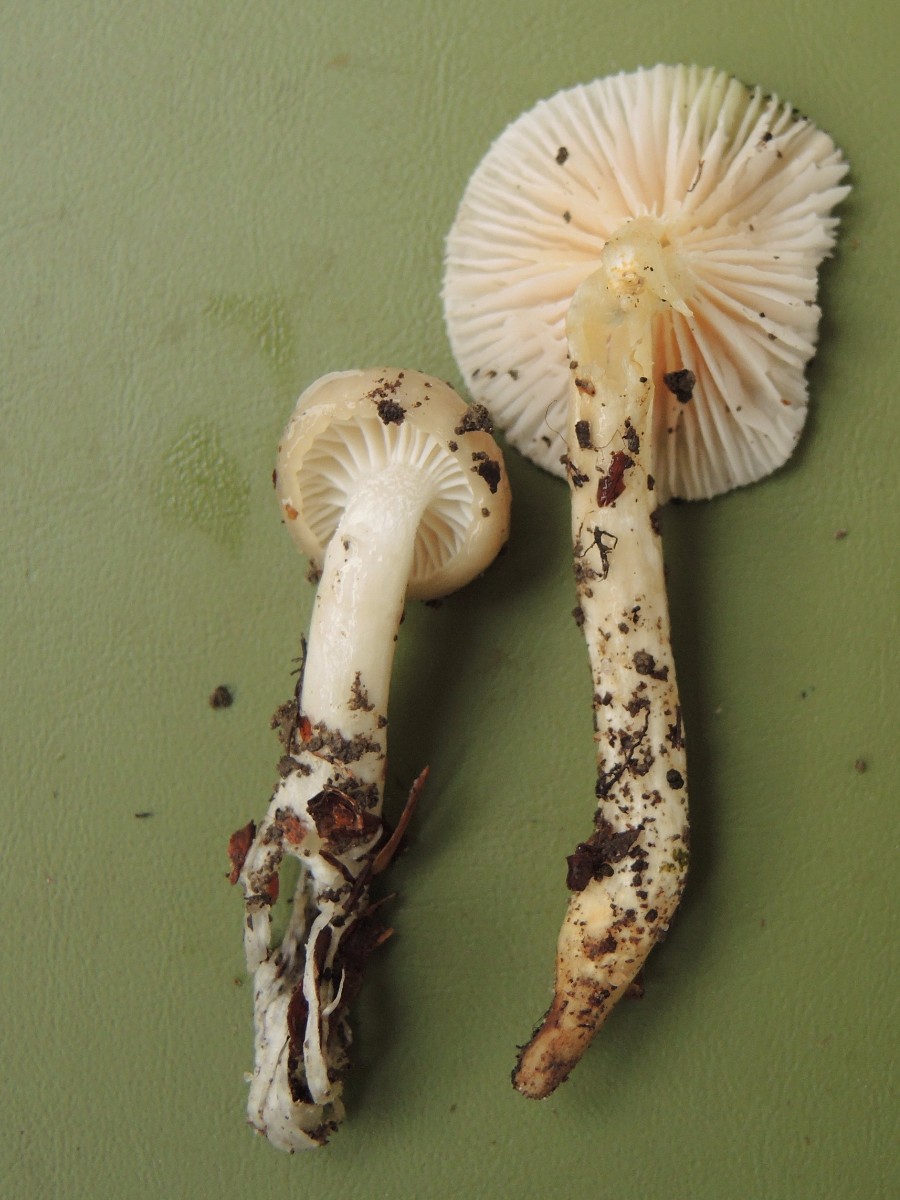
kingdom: Fungi
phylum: Basidiomycota
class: Agaricomycetes
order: Agaricales
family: Hygrophoraceae
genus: Hygrophorus
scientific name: Hygrophorus mesotephrus
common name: askegrå sneglehat
